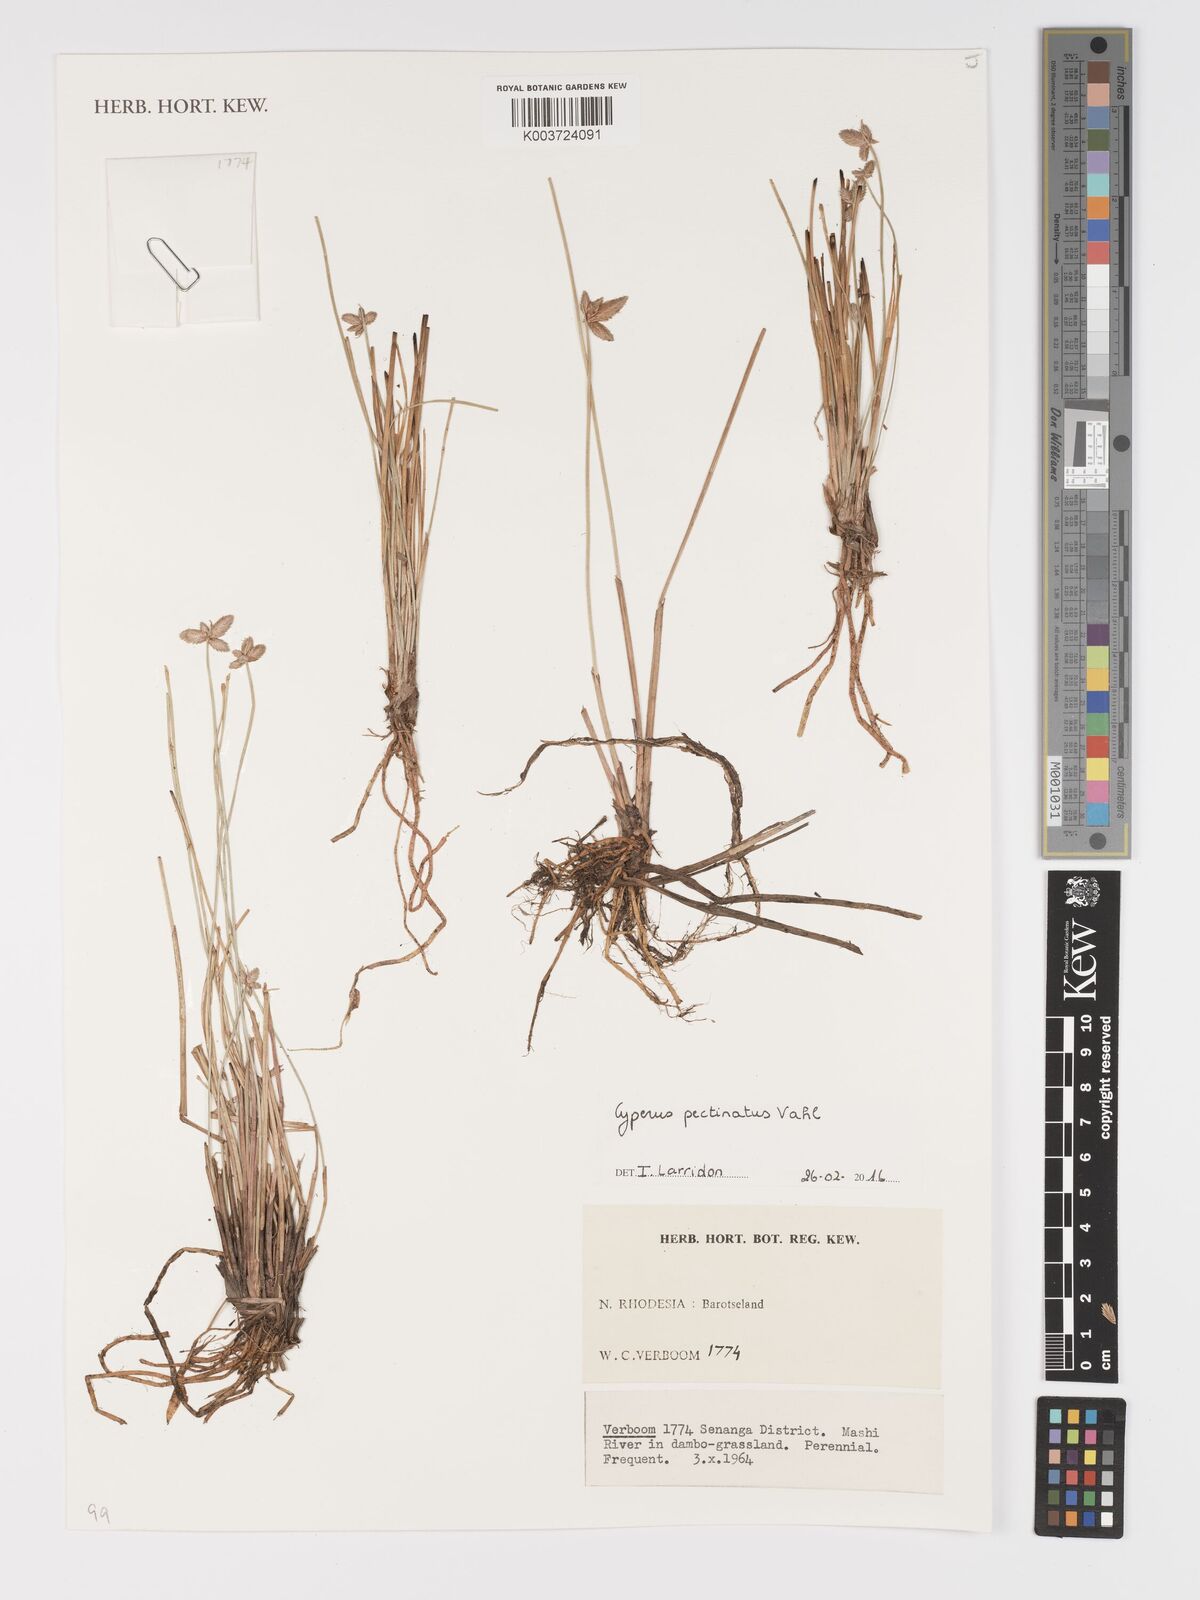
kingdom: Plantae
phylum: Tracheophyta
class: Liliopsida
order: Poales
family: Cyperaceae
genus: Cyperus
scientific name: Cyperus compressus
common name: Poorland flatsedge
